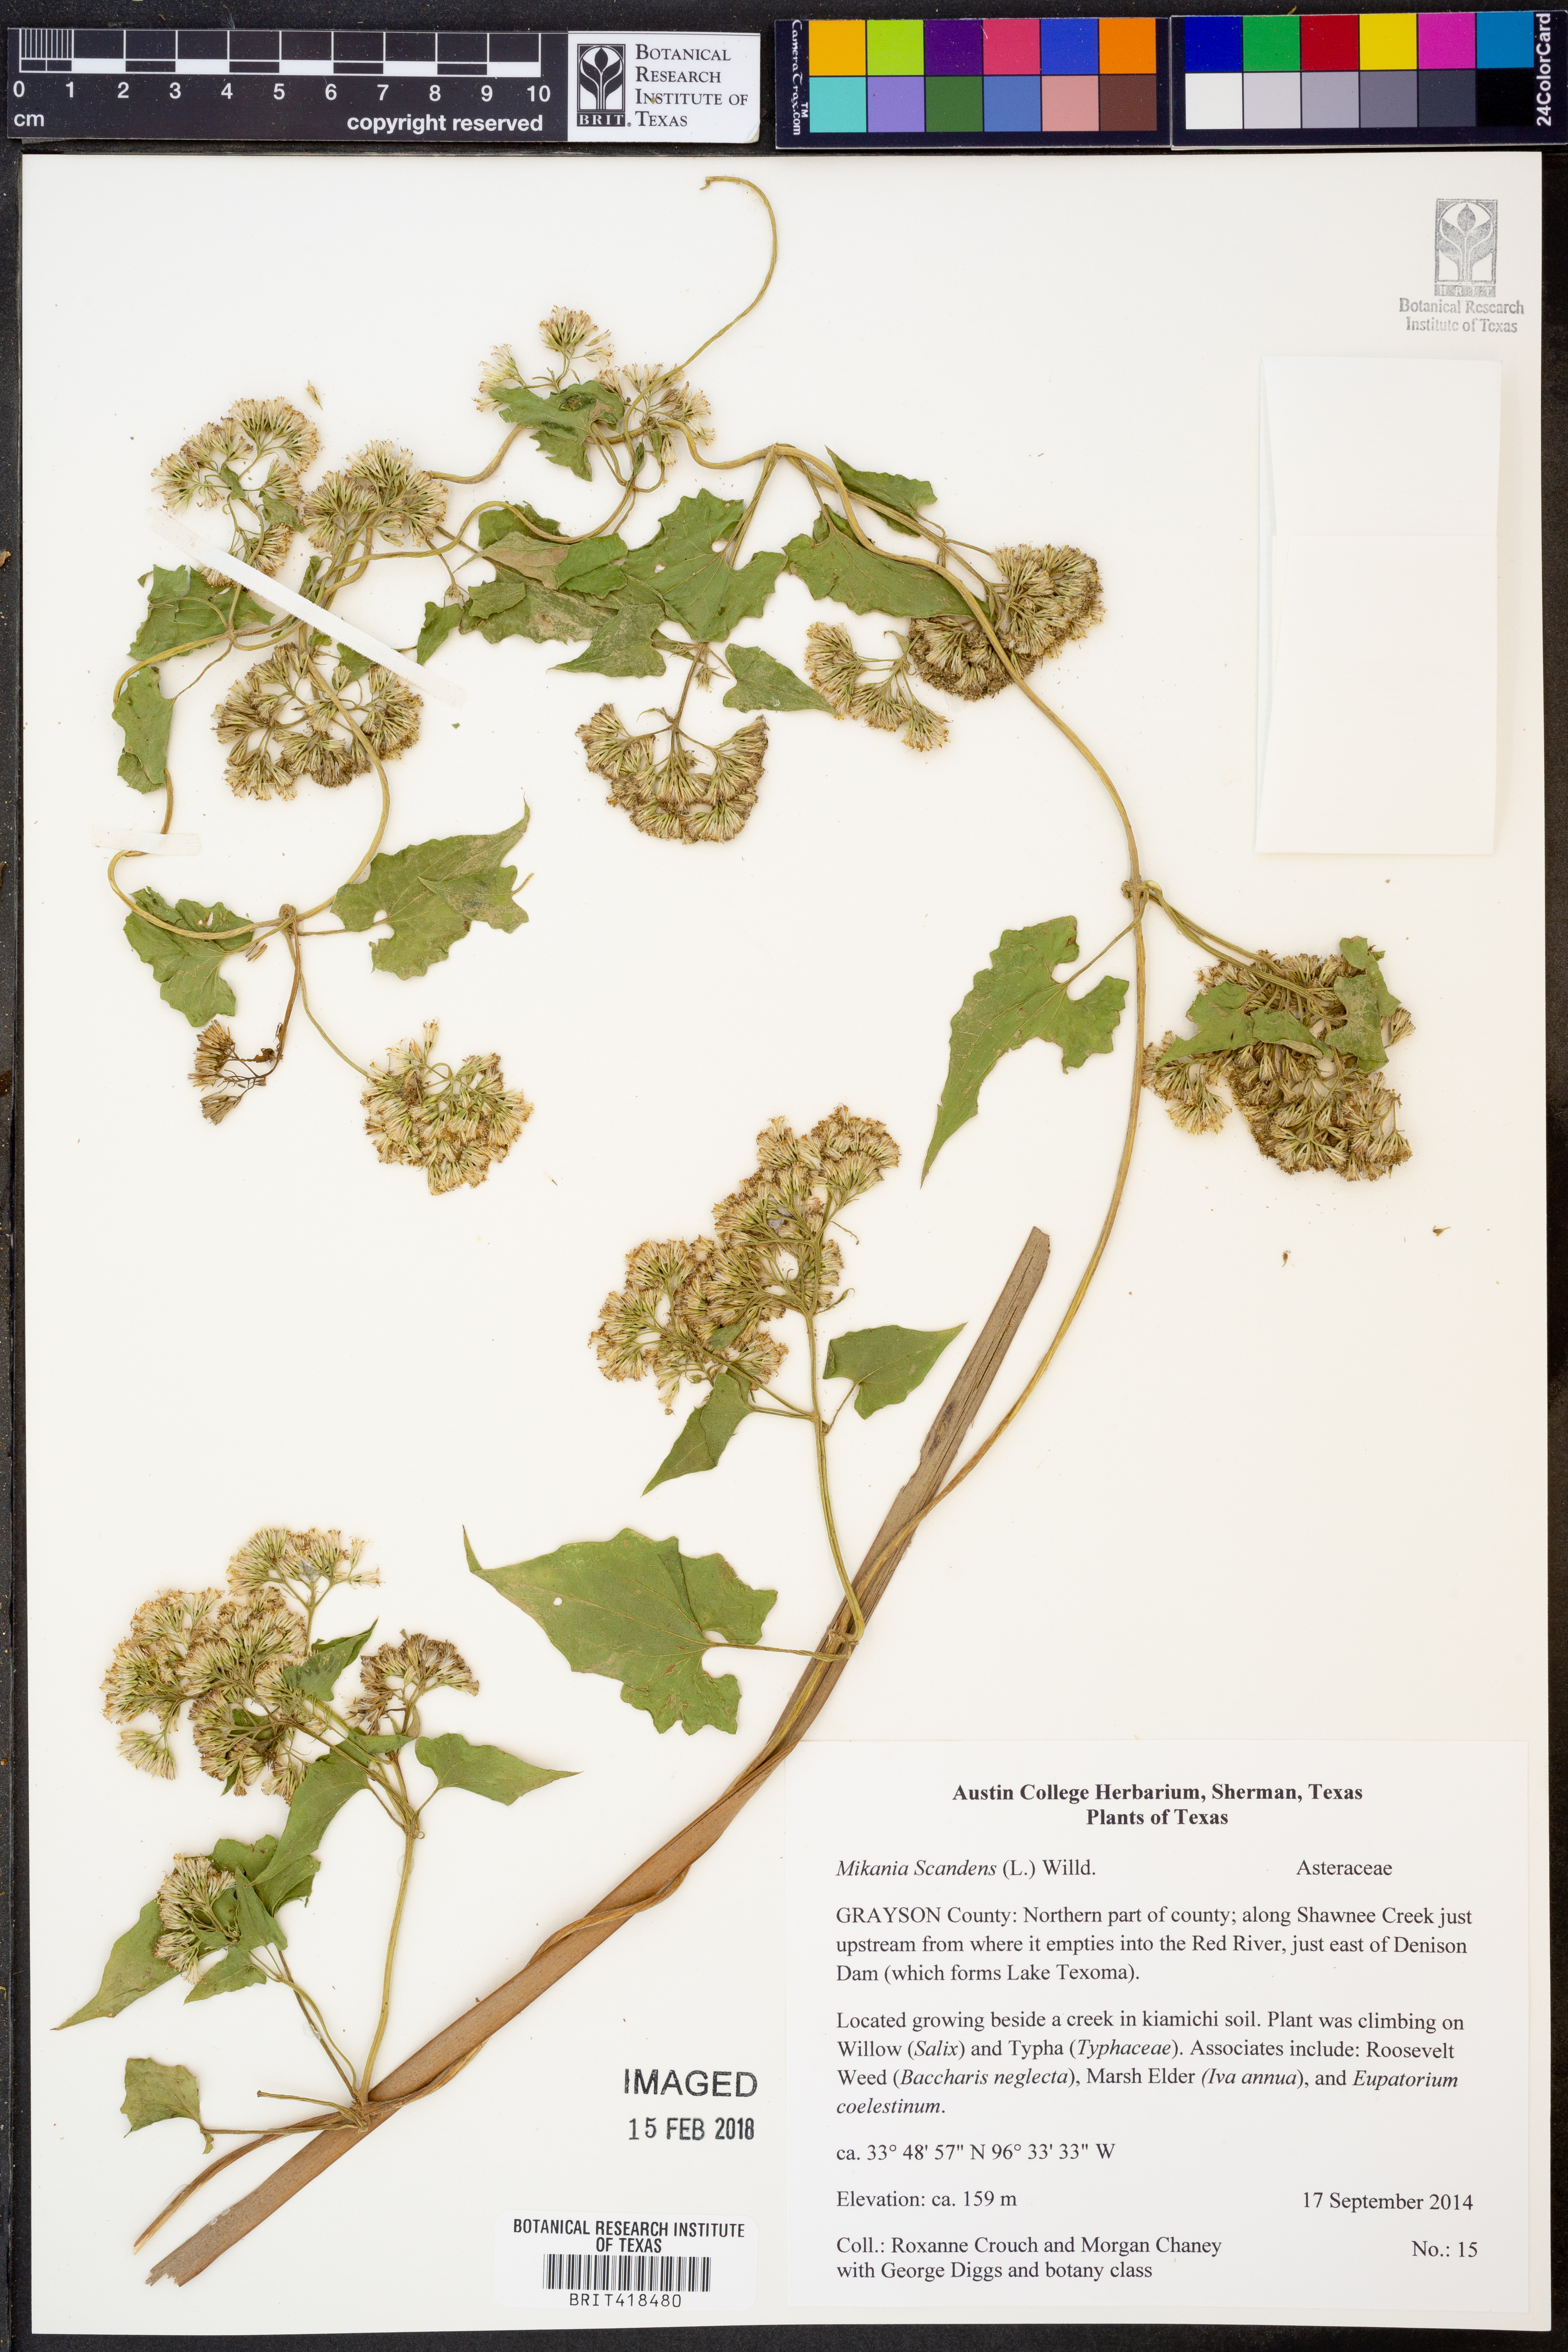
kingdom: Plantae
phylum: Tracheophyta
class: Magnoliopsida
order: Asterales
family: Asteraceae
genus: Mikania
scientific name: Mikania scandens
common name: Climbing hempvine
